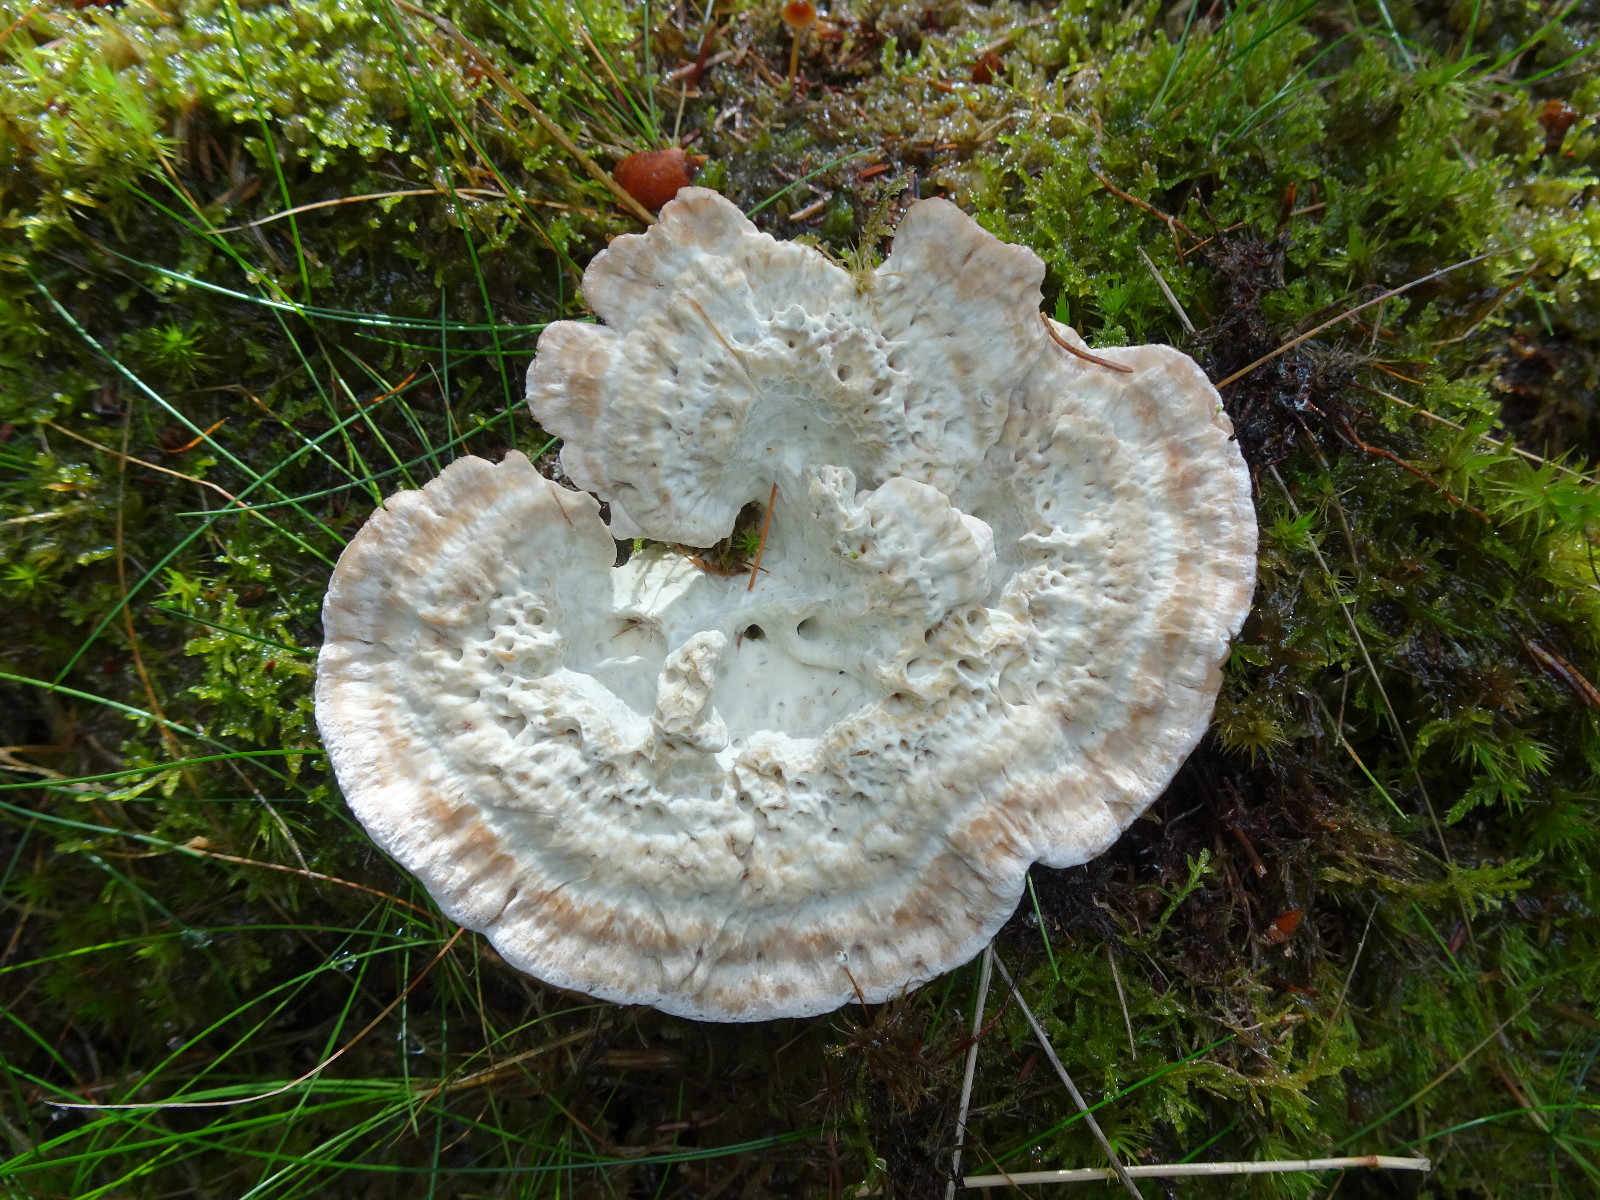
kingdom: Fungi
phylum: Basidiomycota
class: Agaricomycetes
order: Polyporales
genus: Calcipostia
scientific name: Calcipostia guttulata
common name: dråbe-kødporesvamp
